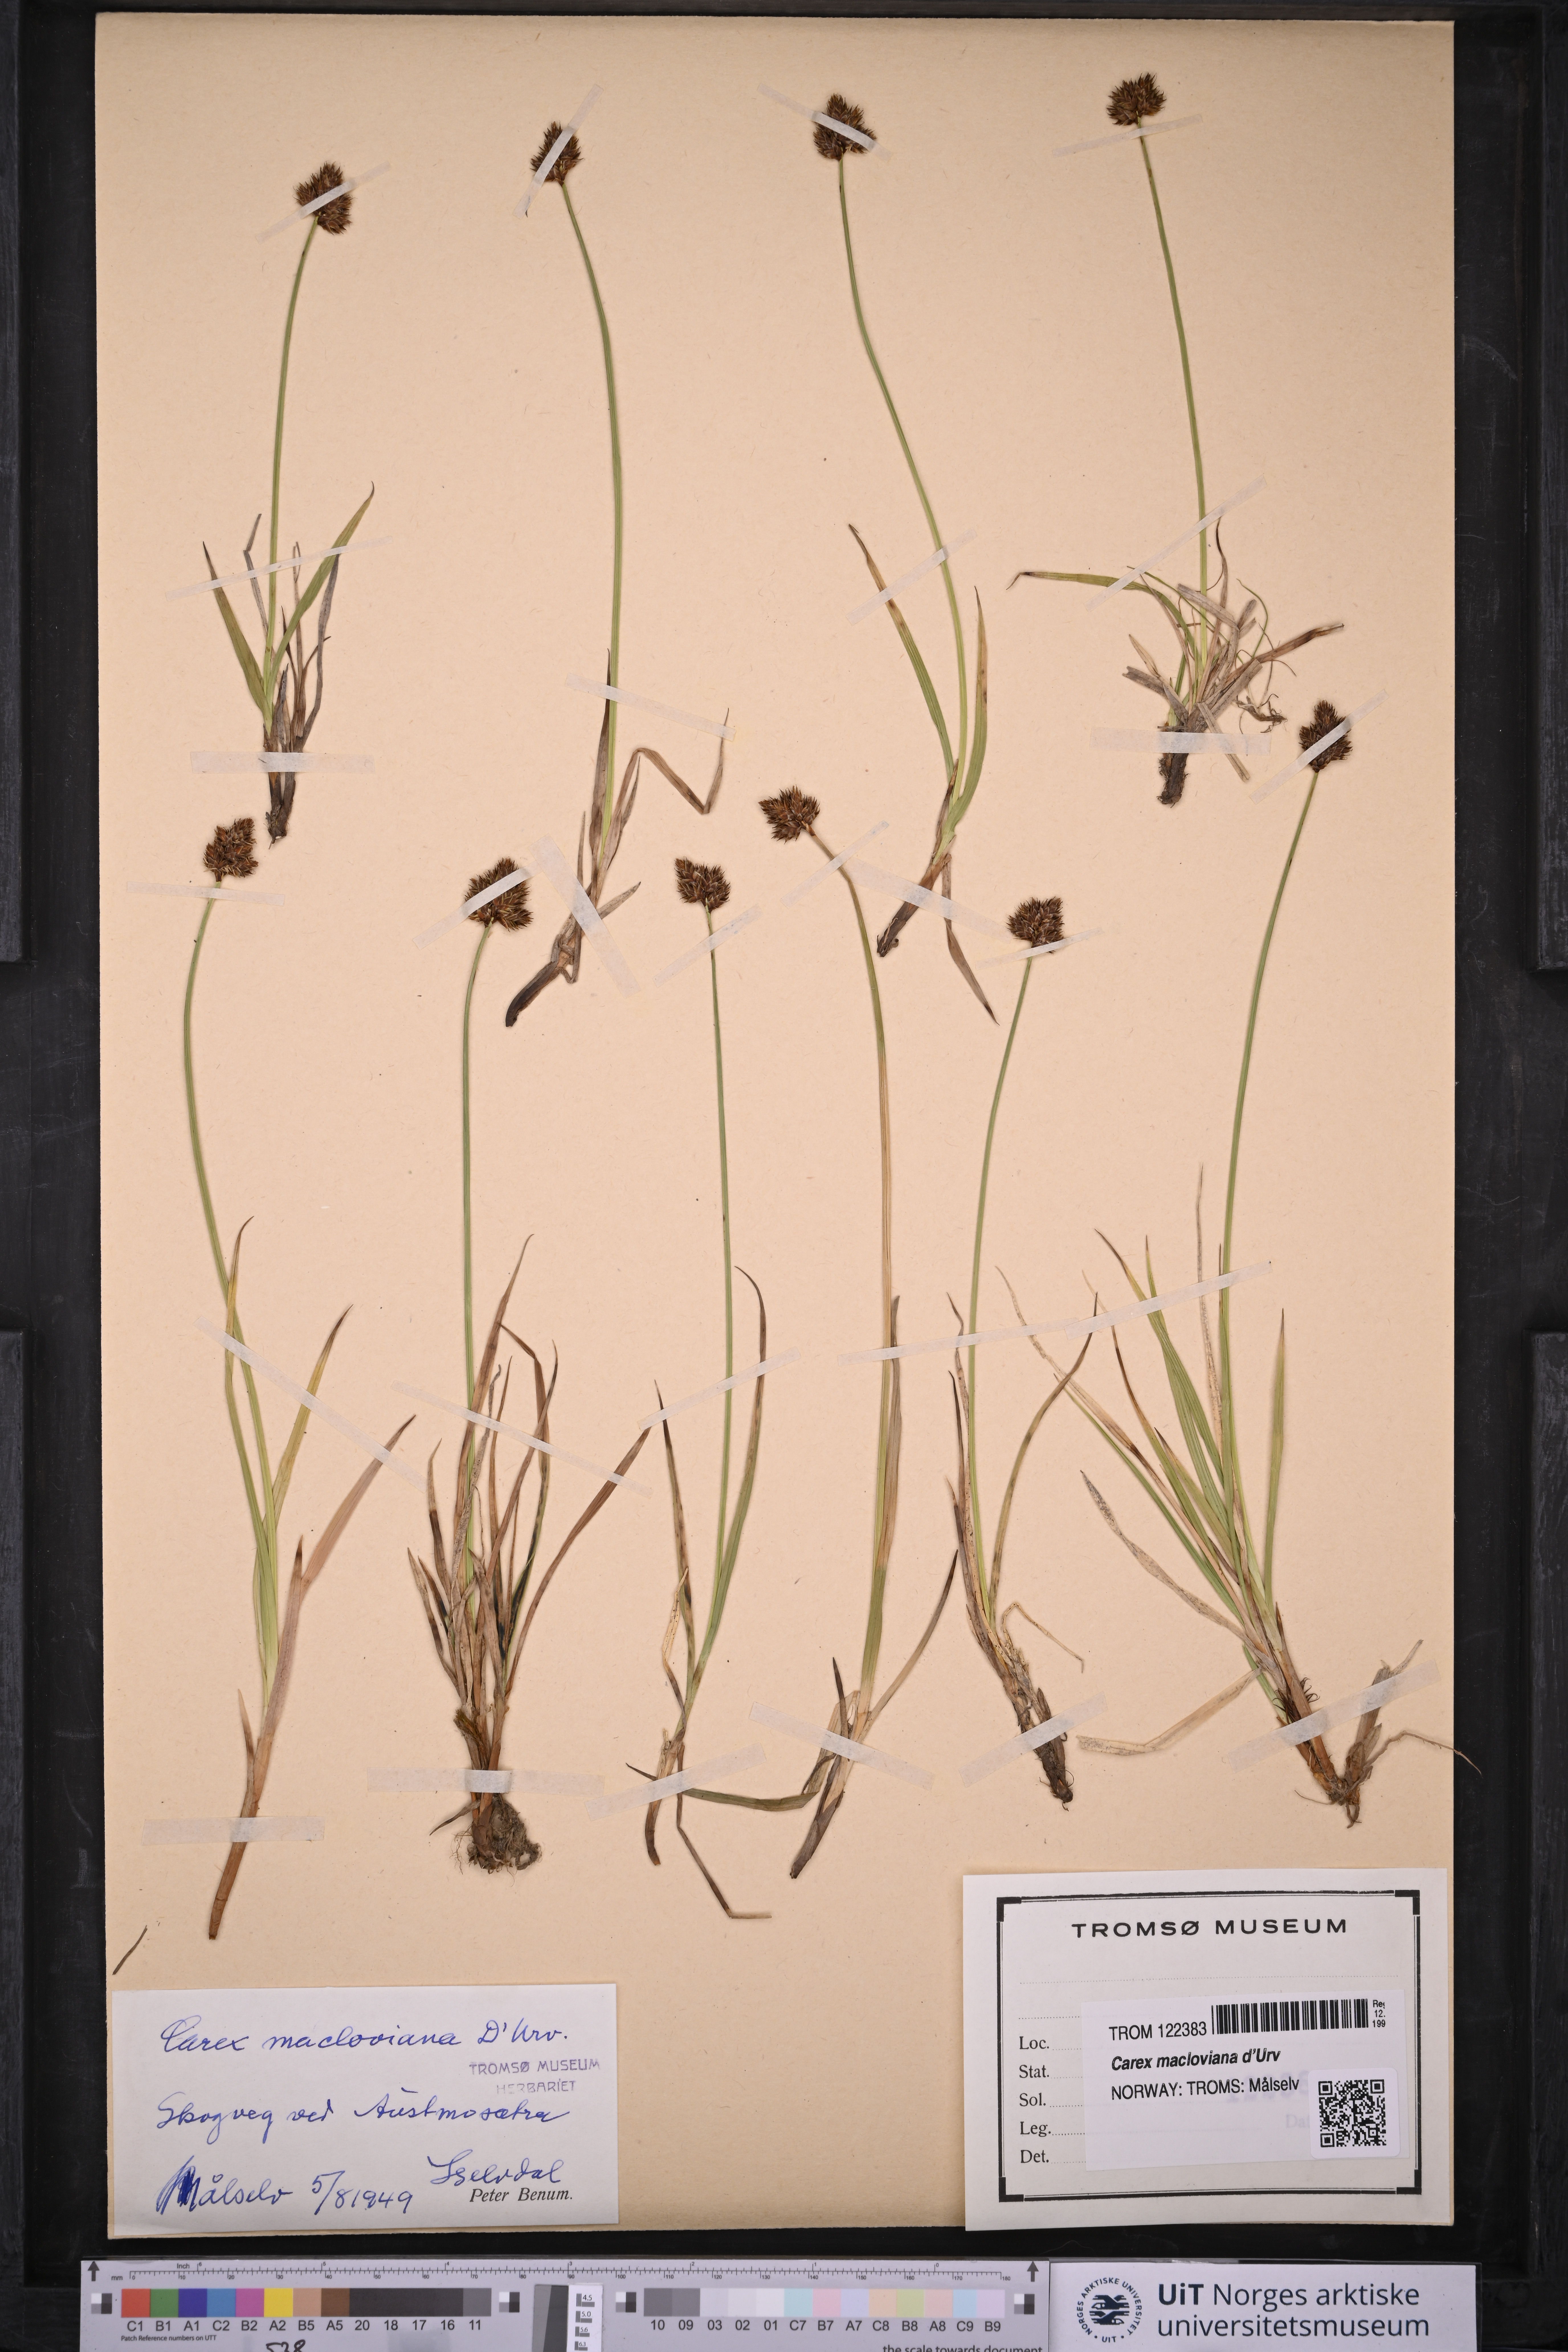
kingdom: Plantae
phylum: Tracheophyta
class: Liliopsida
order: Poales
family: Cyperaceae
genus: Carex
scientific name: Carex macloviana
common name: Falkland island sedge
